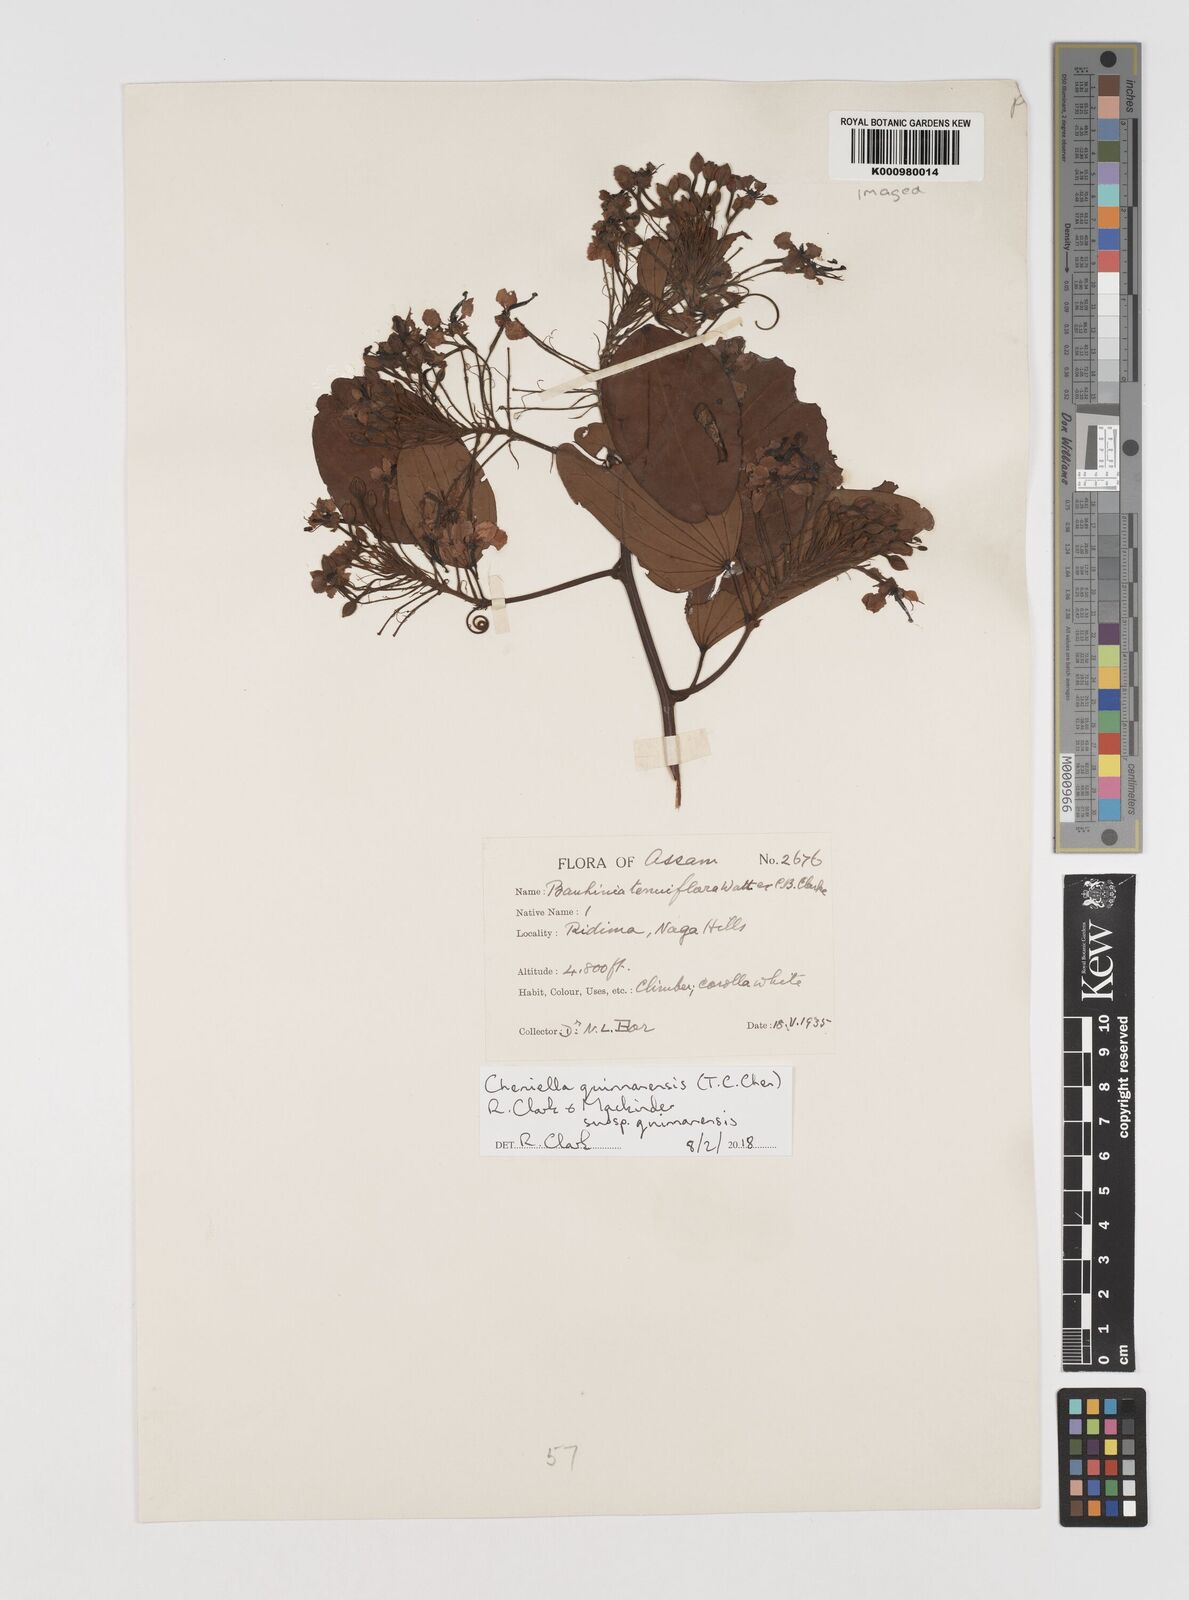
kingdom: Plantae
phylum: Tracheophyta
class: Magnoliopsida
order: Fabales
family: Fabaceae
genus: Cheniella
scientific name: Cheniella quinnanensis
